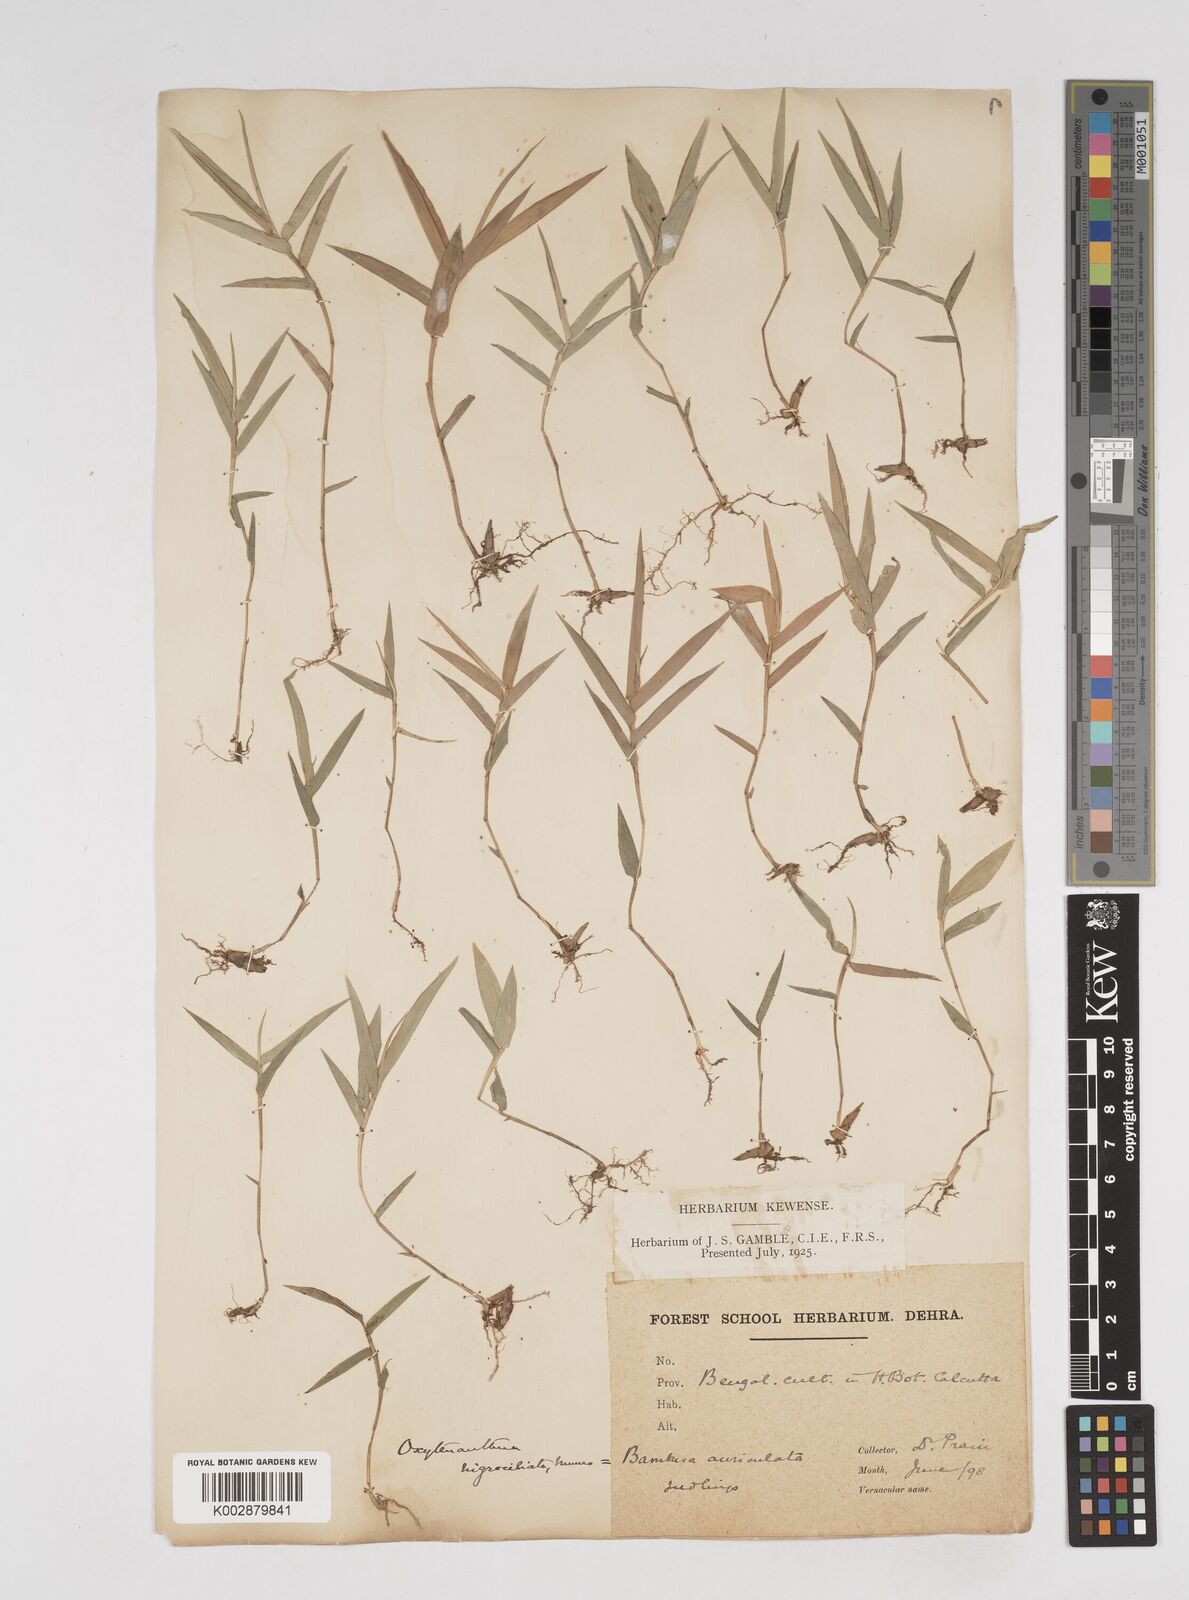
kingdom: Plantae
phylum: Tracheophyta
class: Liliopsida
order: Poales
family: Poaceae
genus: Gigantochloa
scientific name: Gigantochloa nigrociliata
